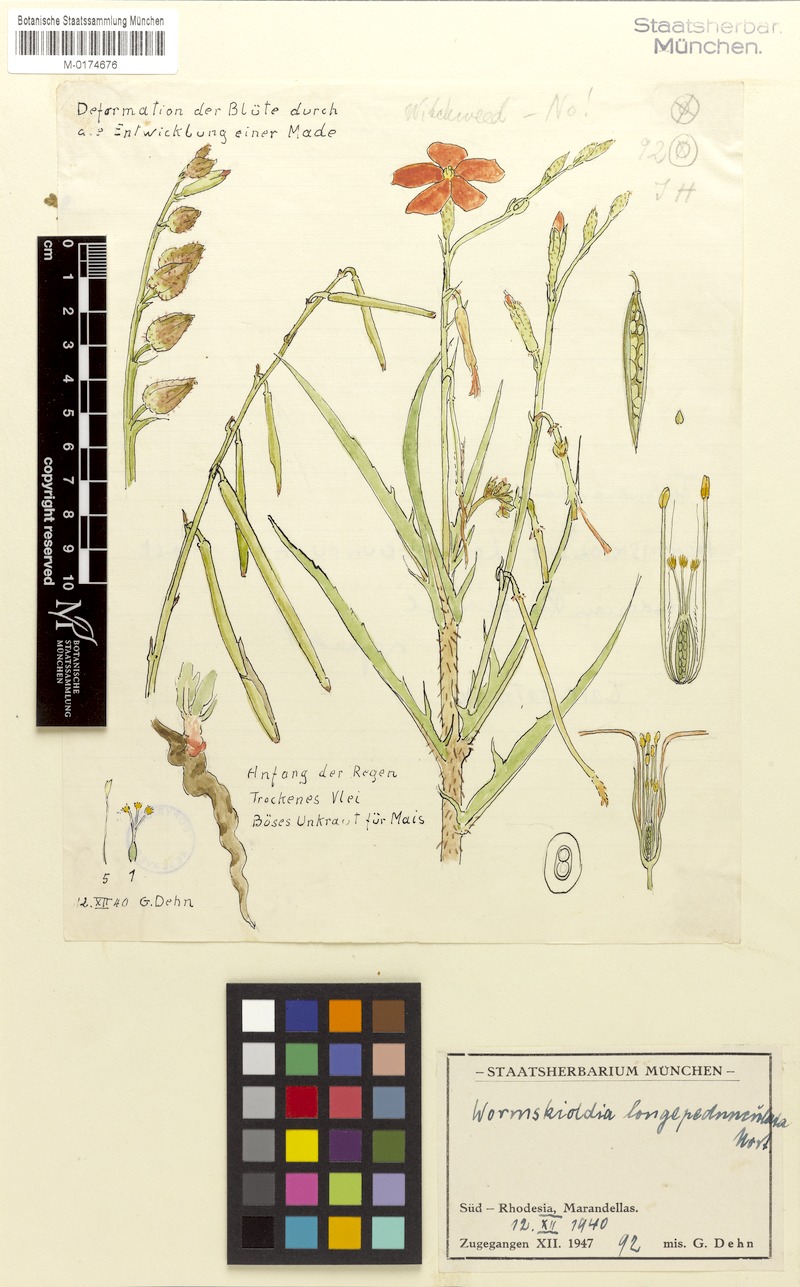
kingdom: Plantae
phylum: Tracheophyta
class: Magnoliopsida
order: Malpighiales
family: Turneraceae
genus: Tricliceras
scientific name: Tricliceras longipedunculatum
